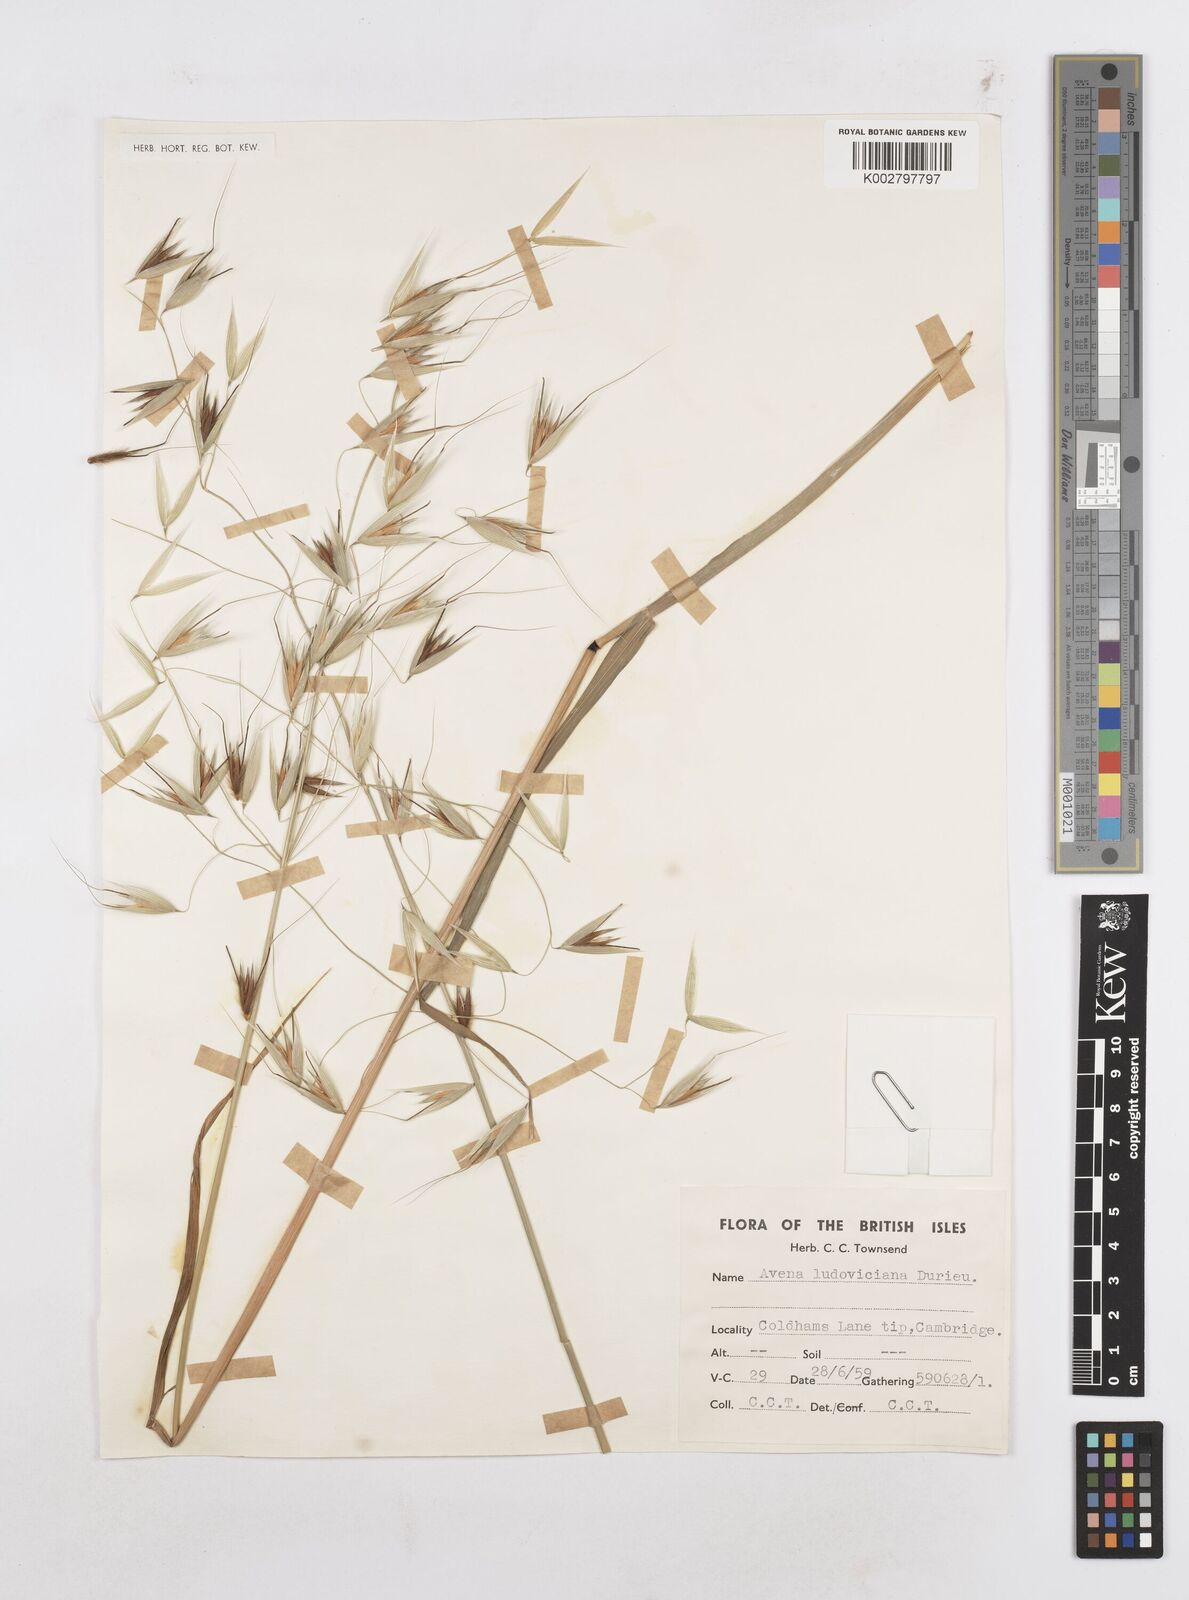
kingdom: Plantae
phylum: Tracheophyta
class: Liliopsida
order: Poales
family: Poaceae
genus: Avena
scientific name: Avena sterilis
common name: Animated oat
